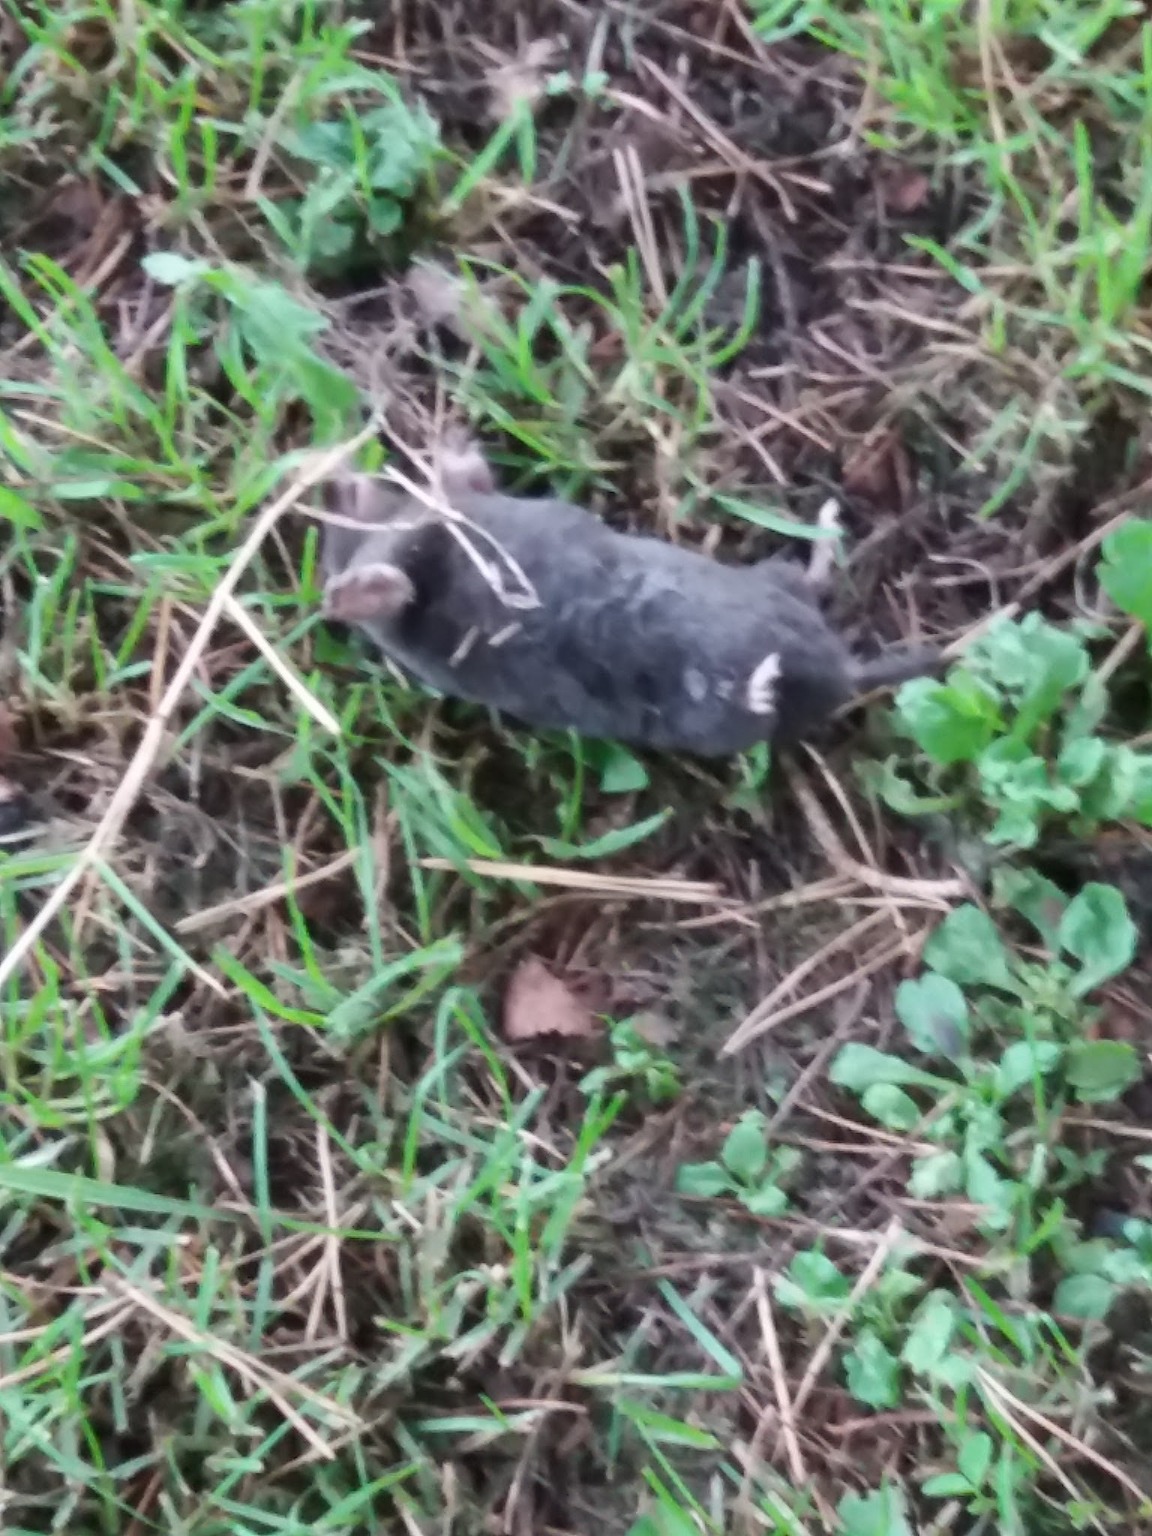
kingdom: Animalia
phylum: Chordata
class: Mammalia
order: Soricomorpha
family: Talpidae
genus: Talpa
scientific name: Talpa europaea
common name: Muldvarp
